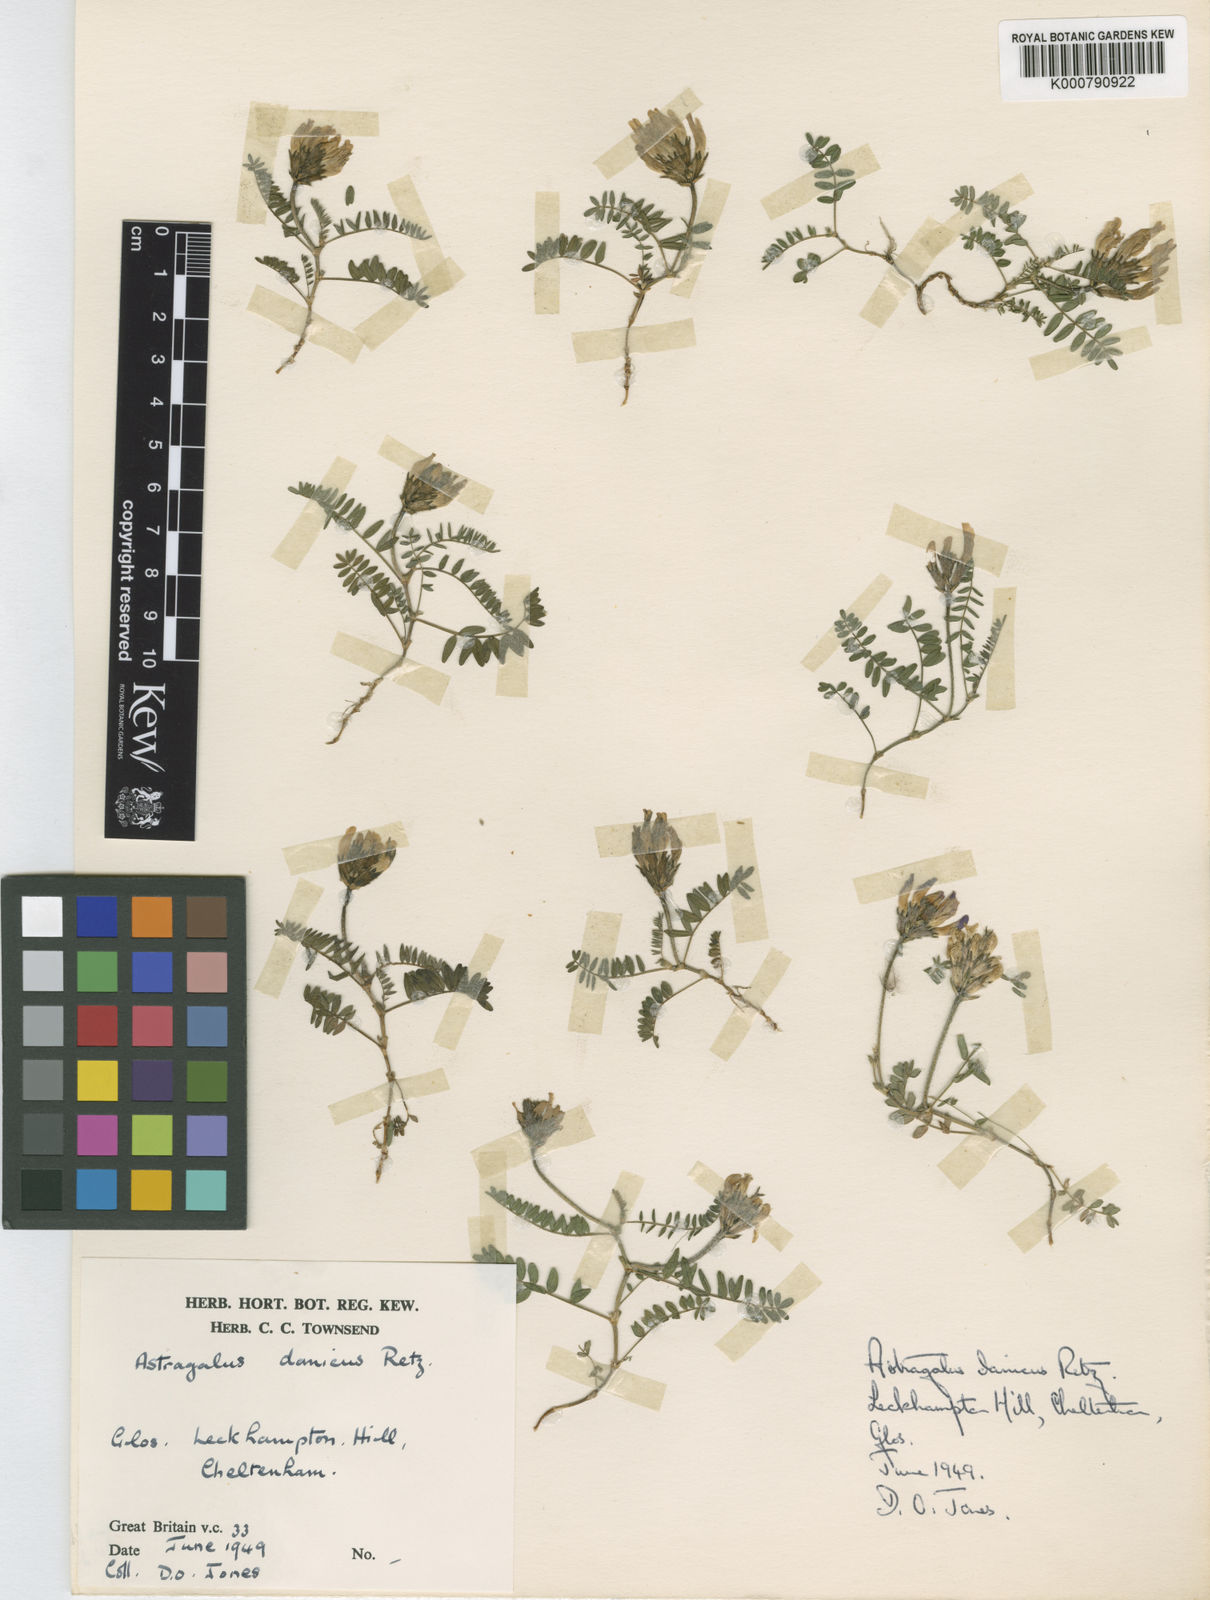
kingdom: Plantae
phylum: Tracheophyta
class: Magnoliopsida
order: Fabales
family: Fabaceae
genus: Astragalus
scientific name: Astragalus danicus
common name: Purple milk-vetch
